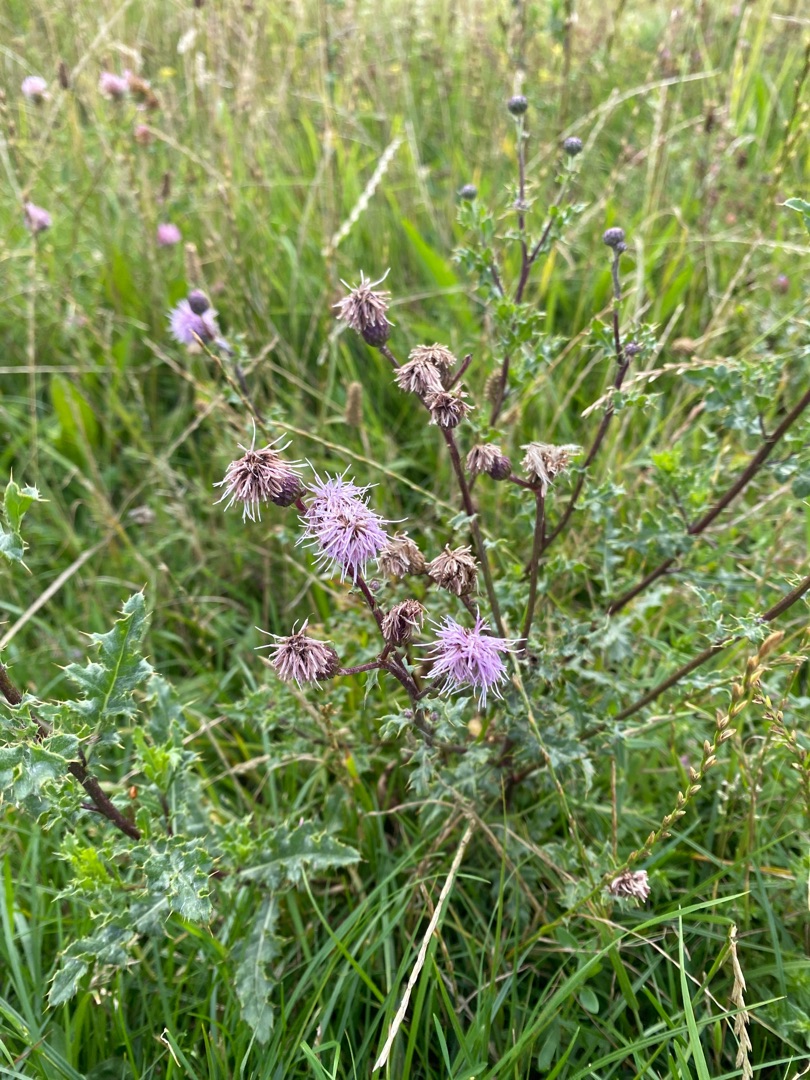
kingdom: Plantae
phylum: Tracheophyta
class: Magnoliopsida
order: Asterales
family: Asteraceae
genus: Cirsium
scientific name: Cirsium arvense
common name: Ager-tidsel
